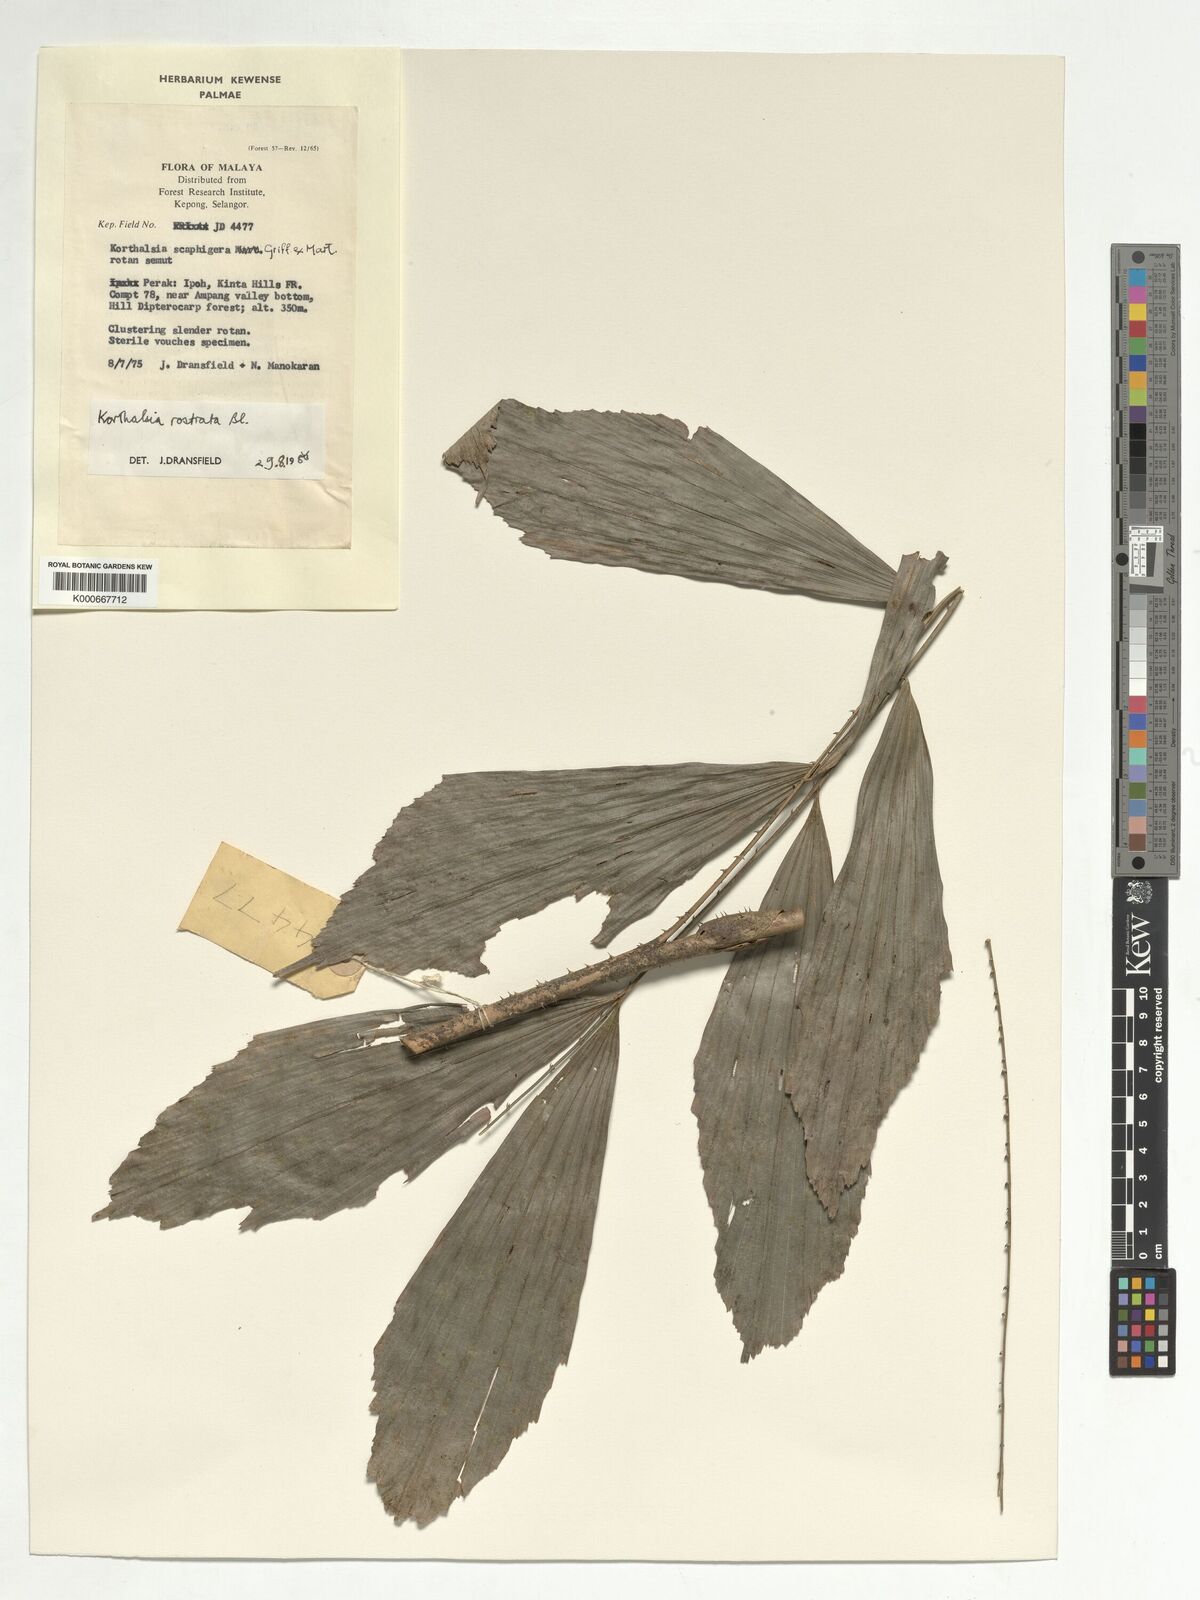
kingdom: Plantae
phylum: Tracheophyta
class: Liliopsida
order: Arecales
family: Arecaceae
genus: Korthalsia
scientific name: Korthalsia rostrata
